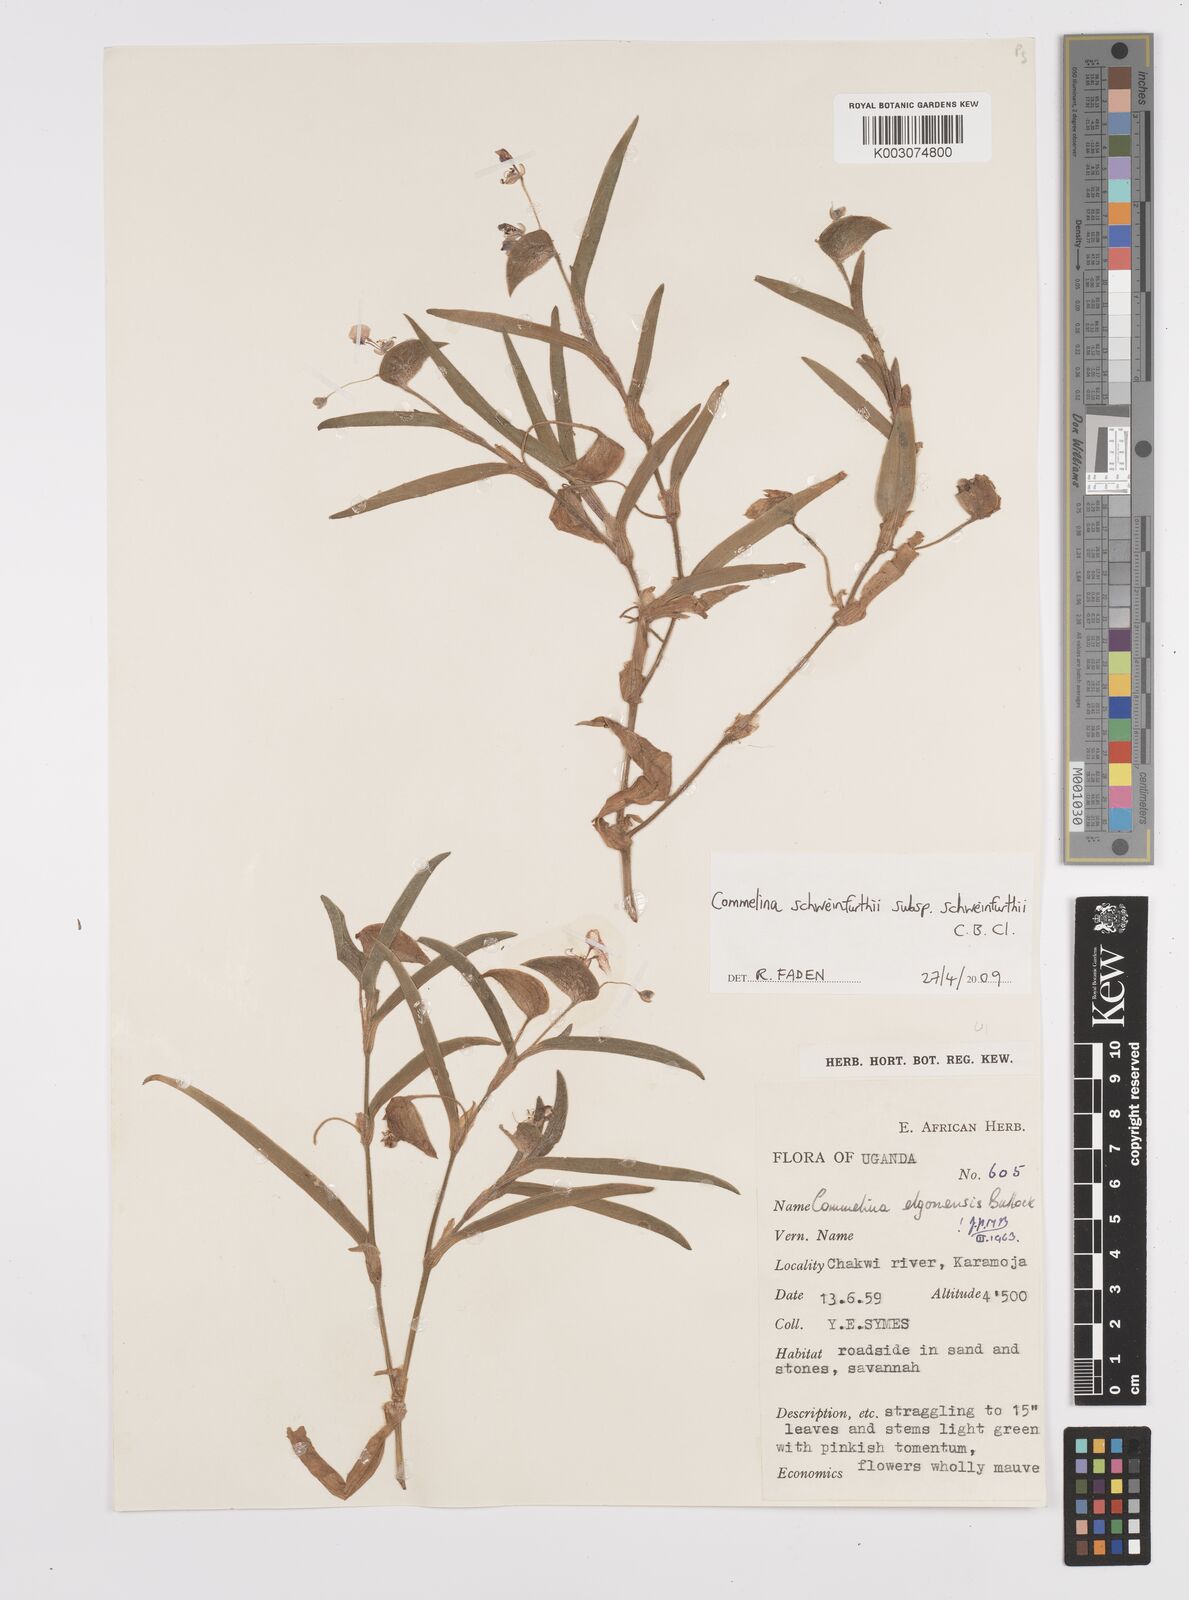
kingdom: Plantae
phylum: Tracheophyta
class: Liliopsida
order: Commelinales
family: Commelinaceae
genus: Commelina
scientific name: Commelina schweinfurthii
